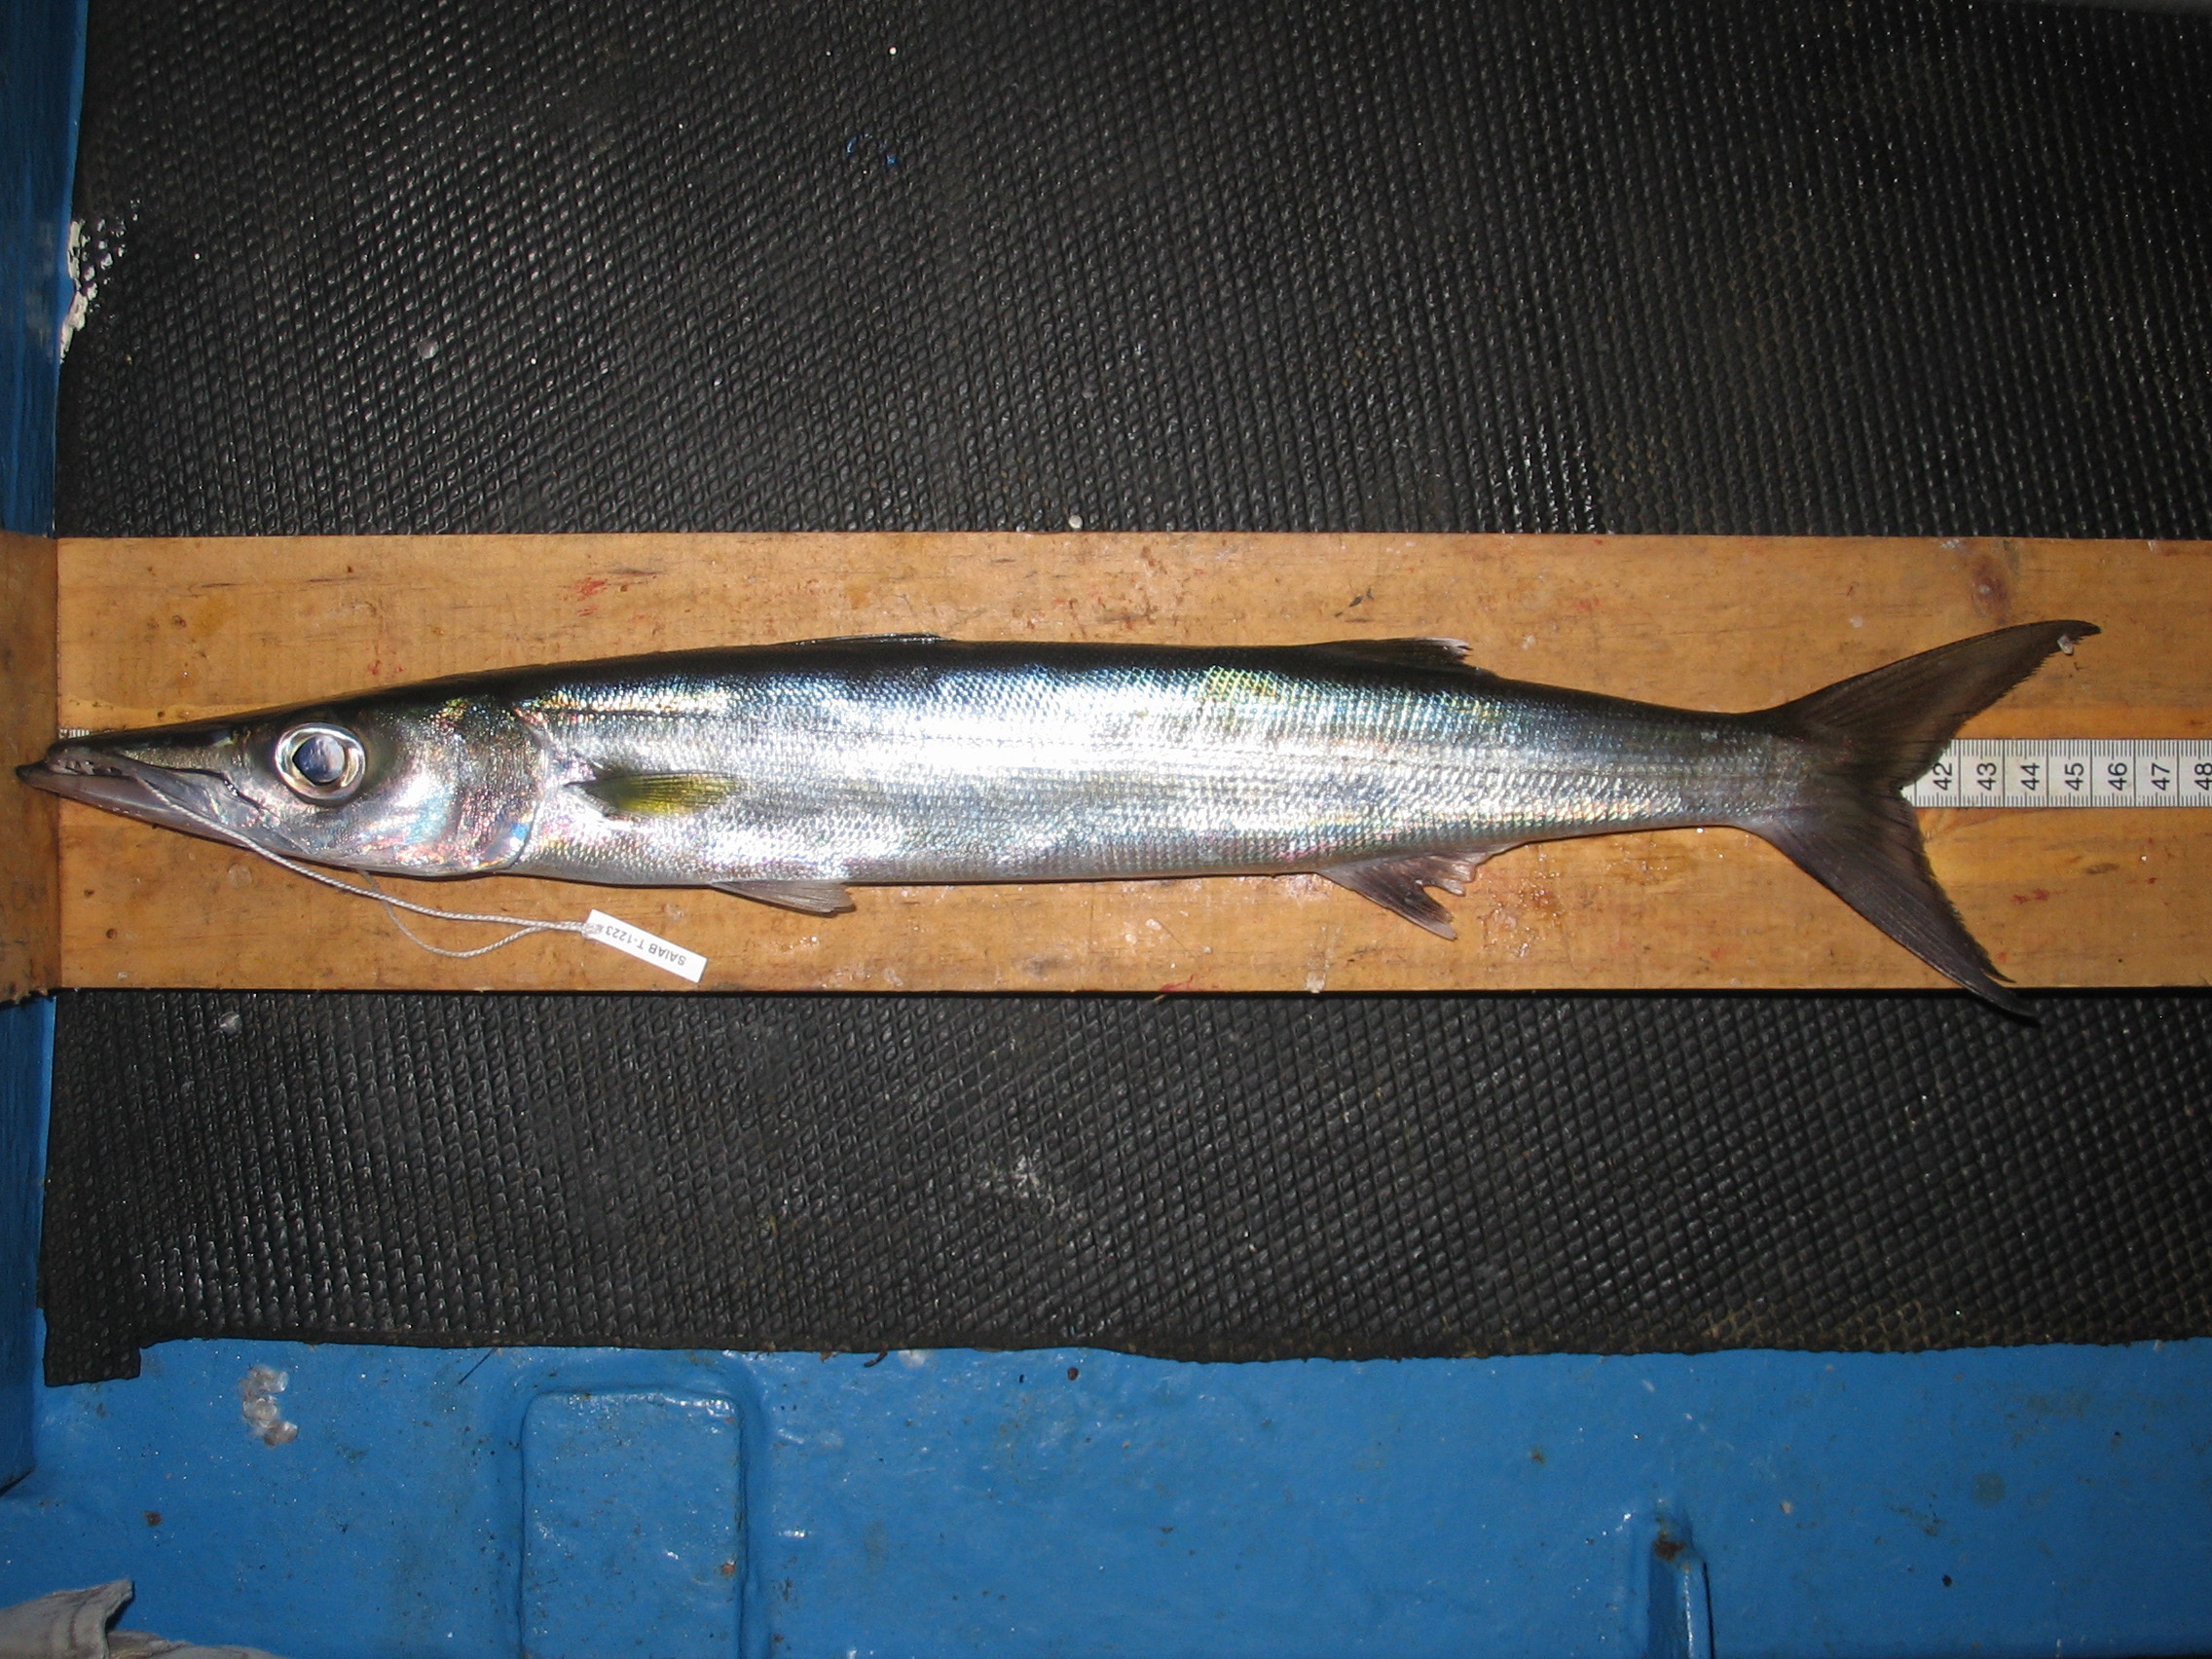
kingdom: Animalia
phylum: Chordata
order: Perciformes
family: Sphyraenidae
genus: Sphyraena
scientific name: Sphyraena acutipinnis
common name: Sharpfin barracuda
